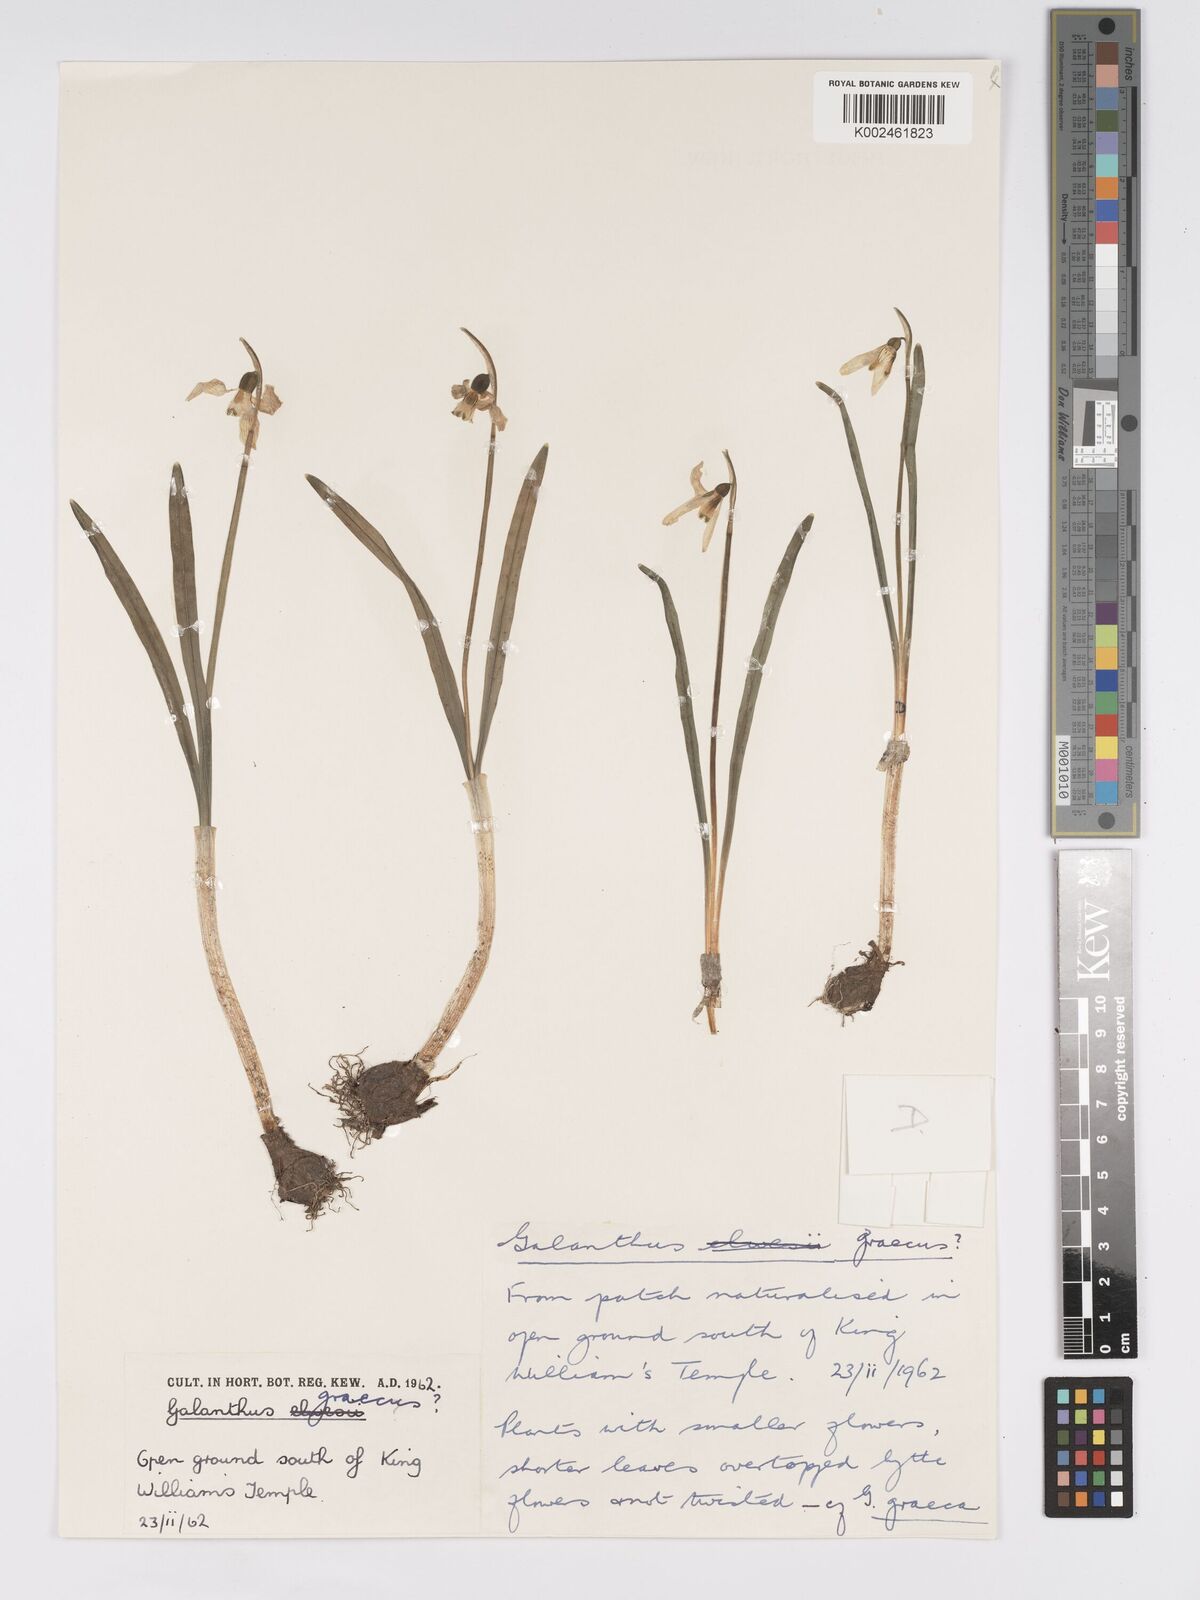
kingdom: Plantae
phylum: Tracheophyta
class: Liliopsida
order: Asparagales
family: Amaryllidaceae
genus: Galanthus
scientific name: Galanthus elwesii
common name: Greater snowdrop
